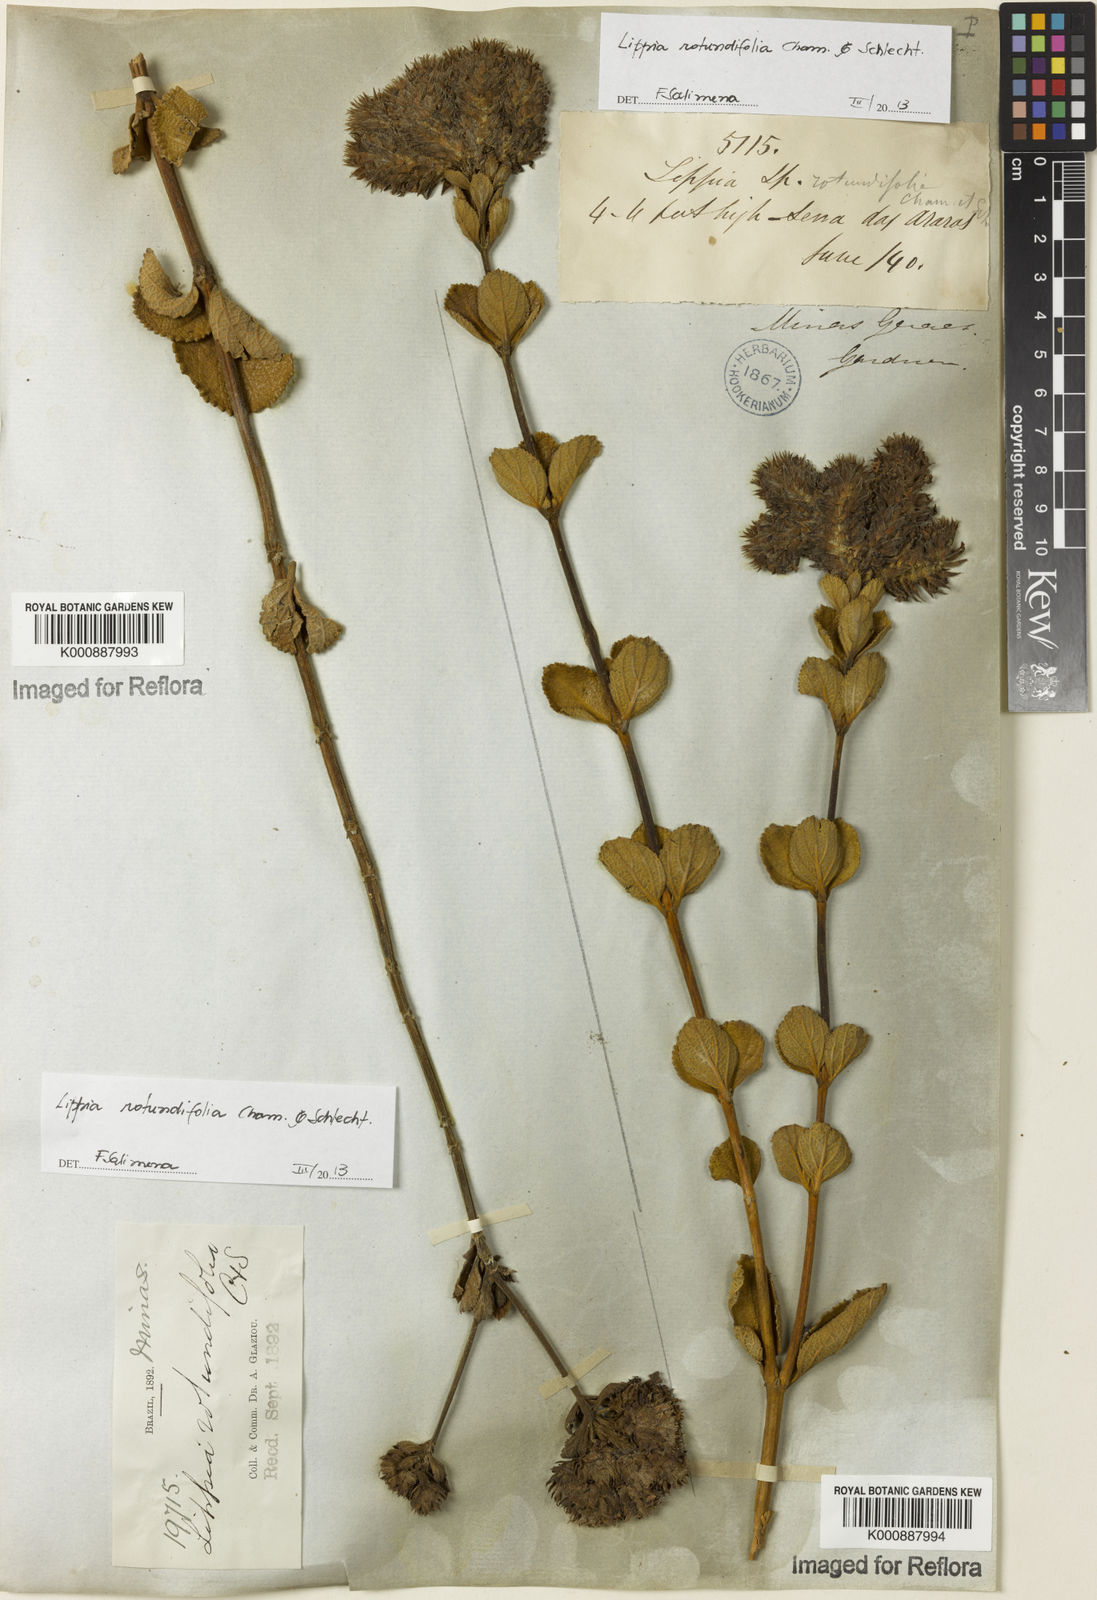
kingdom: Plantae
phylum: Tracheophyta
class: Magnoliopsida
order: Lamiales
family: Verbenaceae
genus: Lippia
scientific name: Lippia rotundifolia
